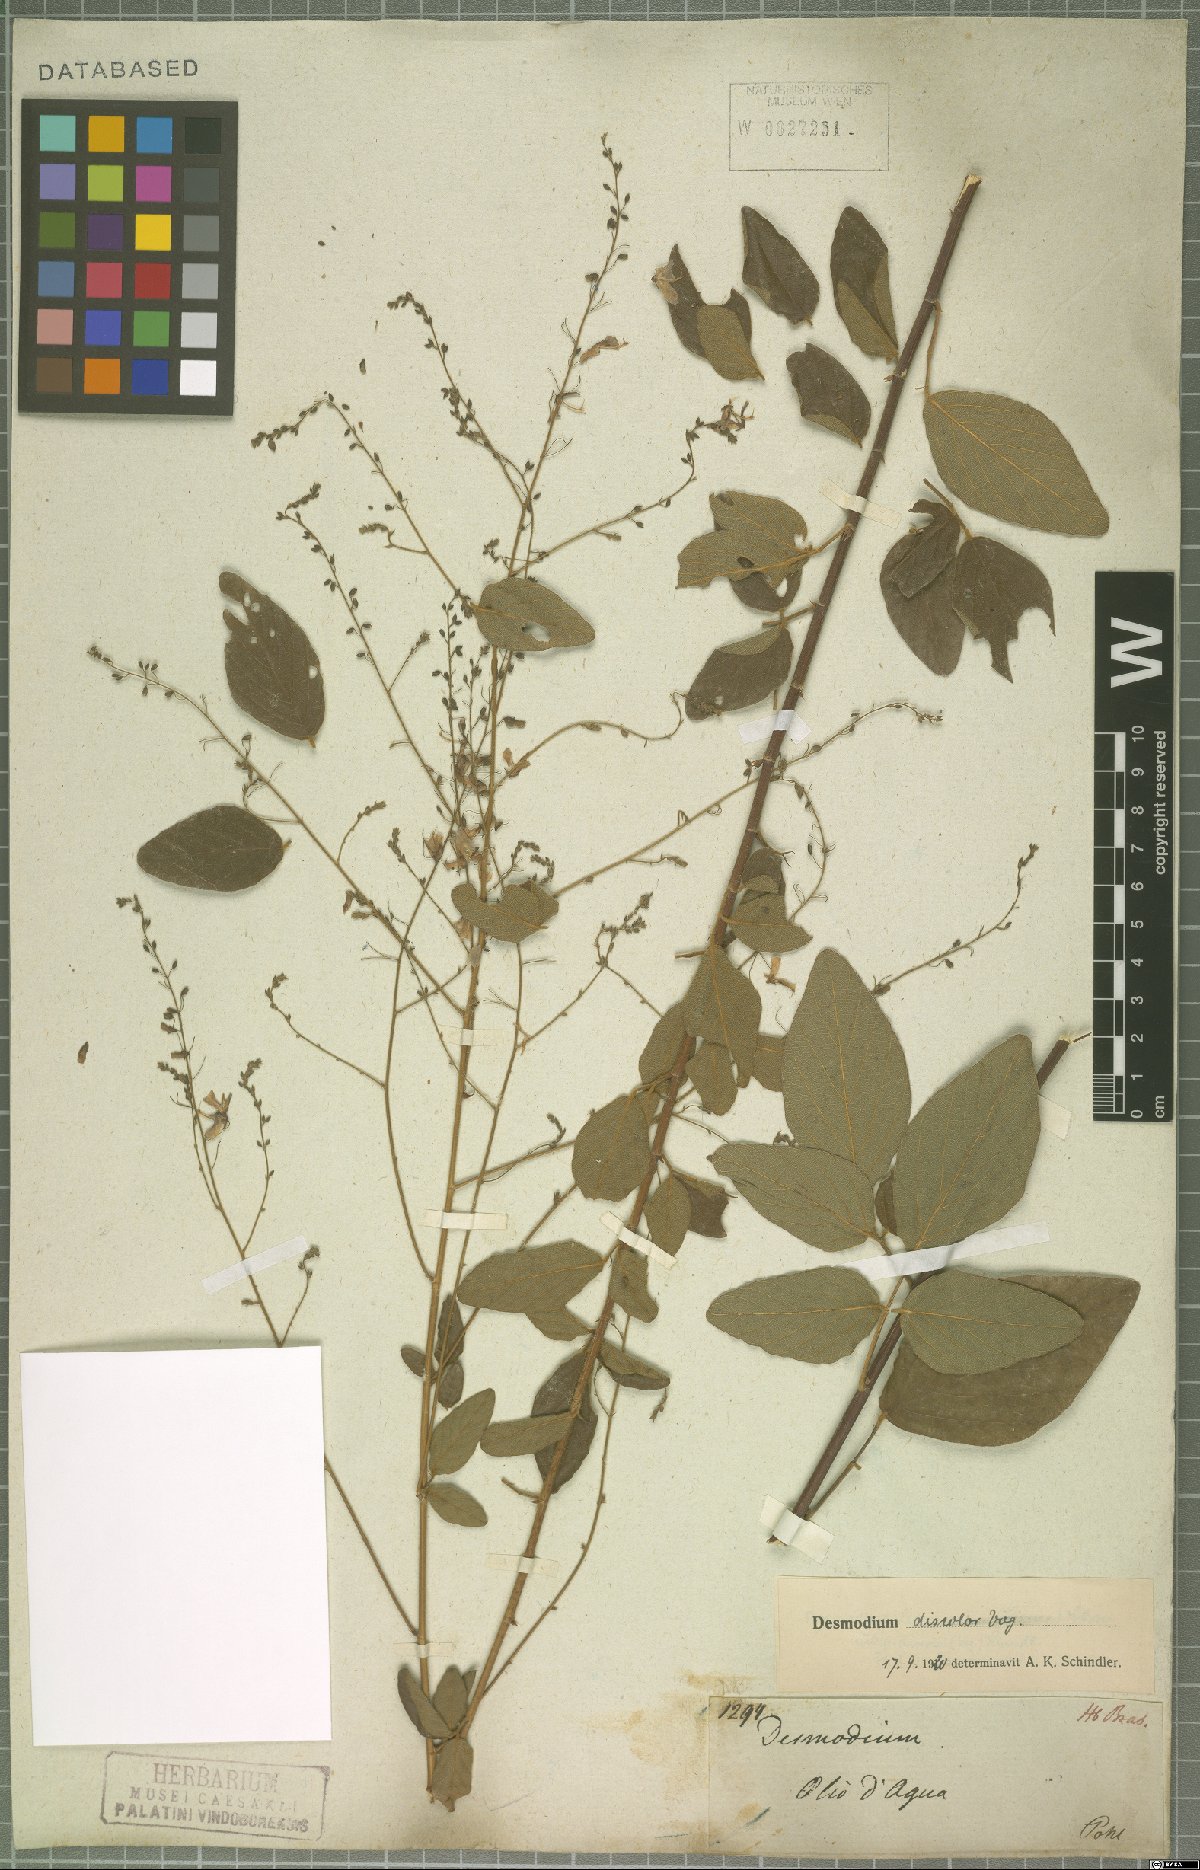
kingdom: Plantae
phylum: Tracheophyta
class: Magnoliopsida
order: Fabales
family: Fabaceae
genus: Desmodium
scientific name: Desmodium subsecundum
